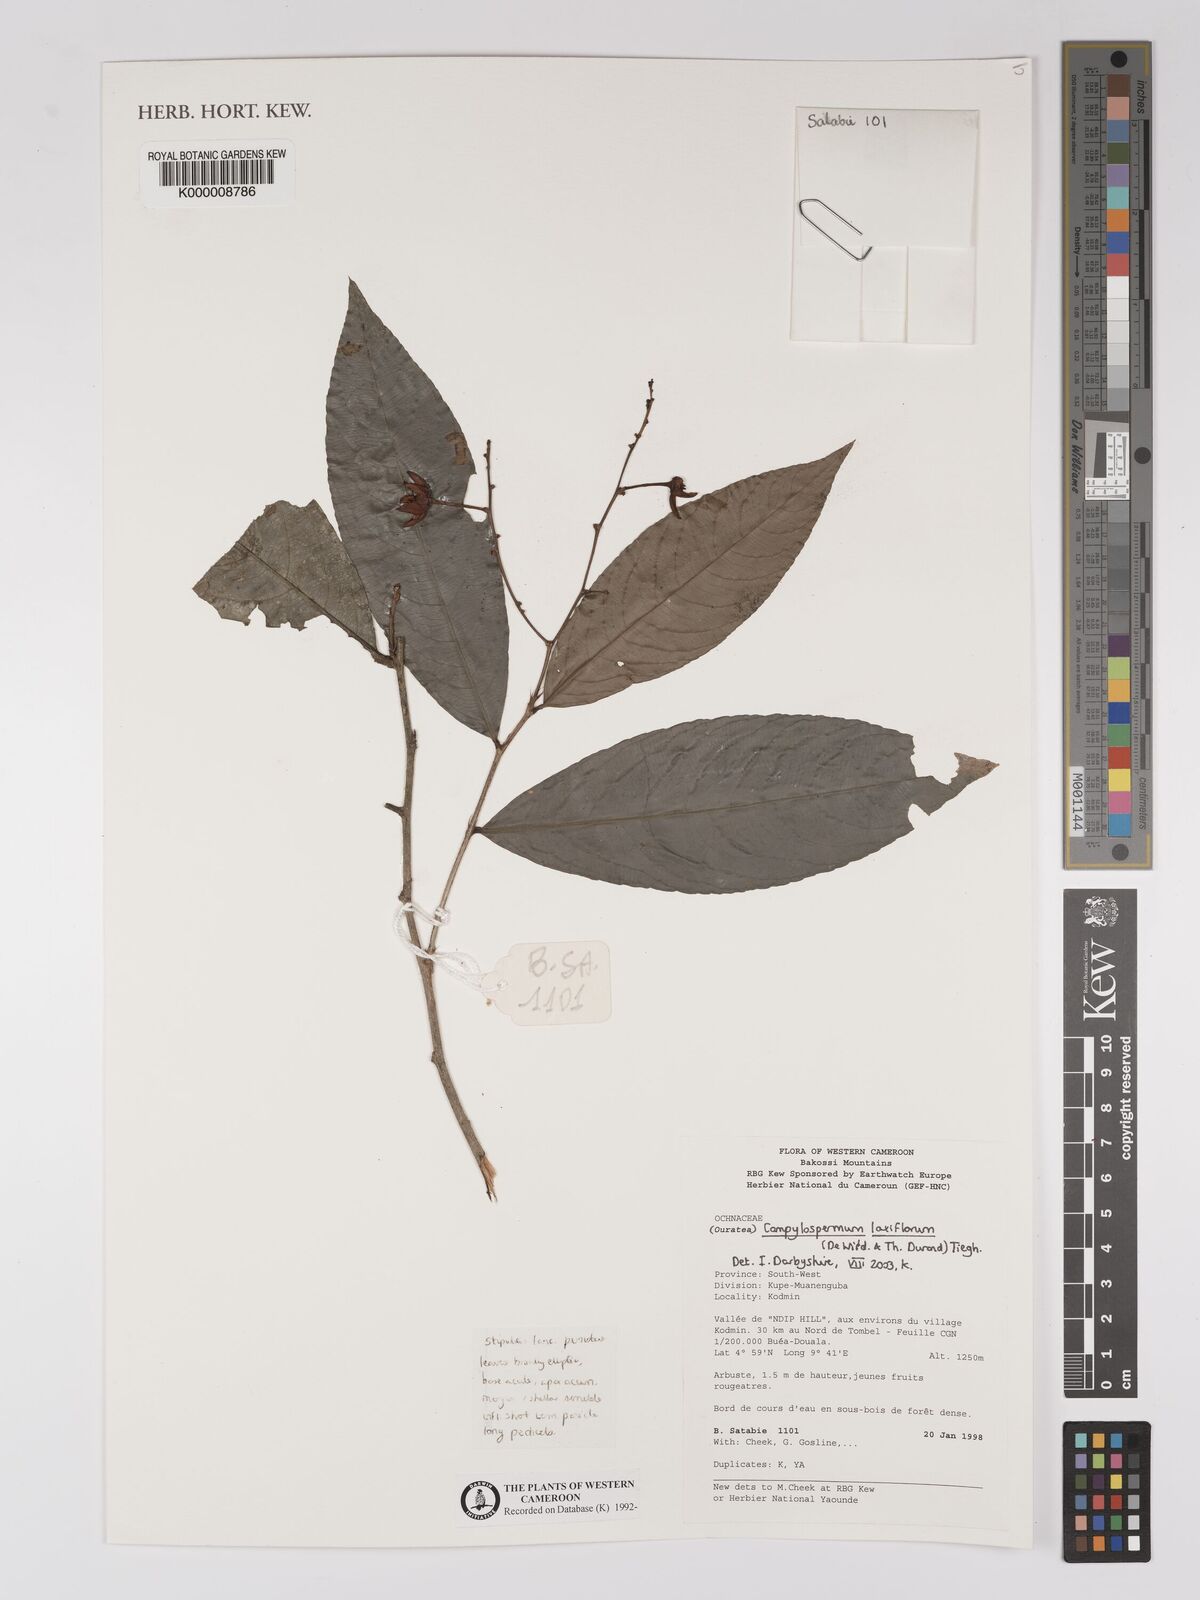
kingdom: Plantae
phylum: Tracheophyta
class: Magnoliopsida
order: Malpighiales
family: Ochnaceae
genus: Campylospermum
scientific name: Campylospermum mannii
